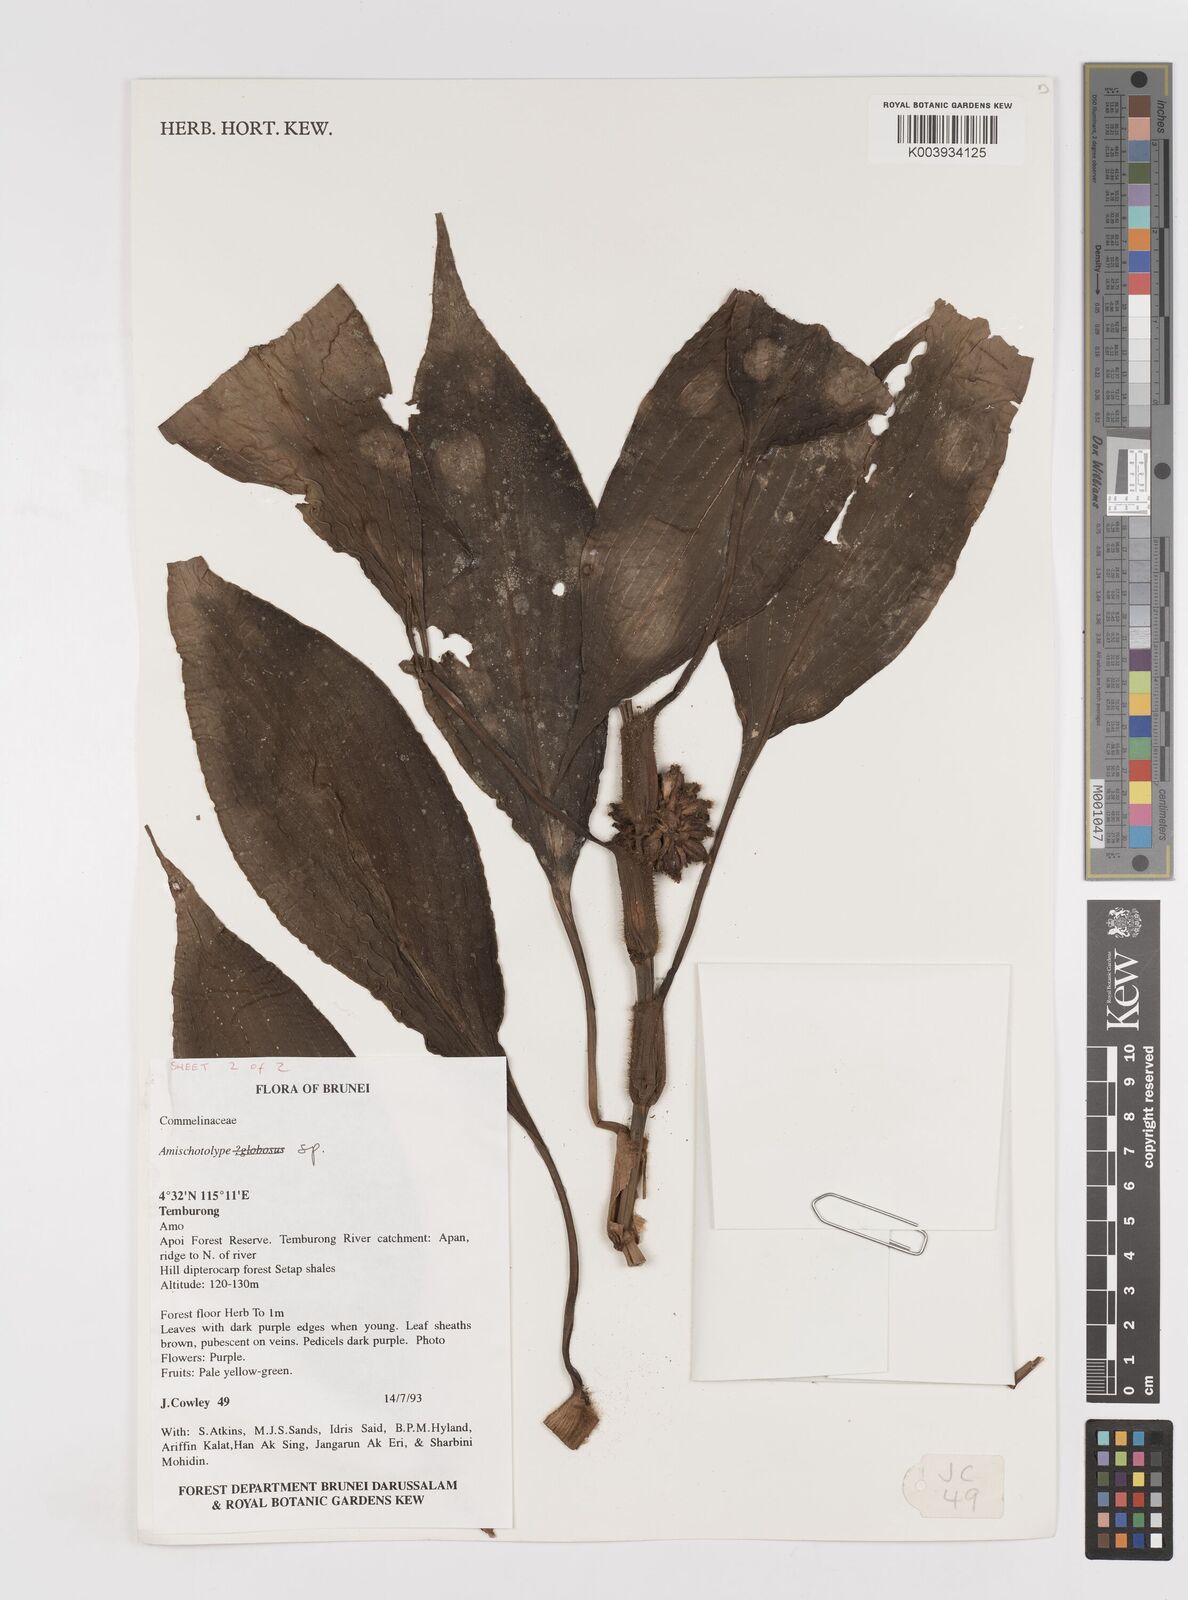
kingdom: Plantae
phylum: Tracheophyta
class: Liliopsida
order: Commelinales
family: Commelinaceae
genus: Amischotolype
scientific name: Amischotolype
